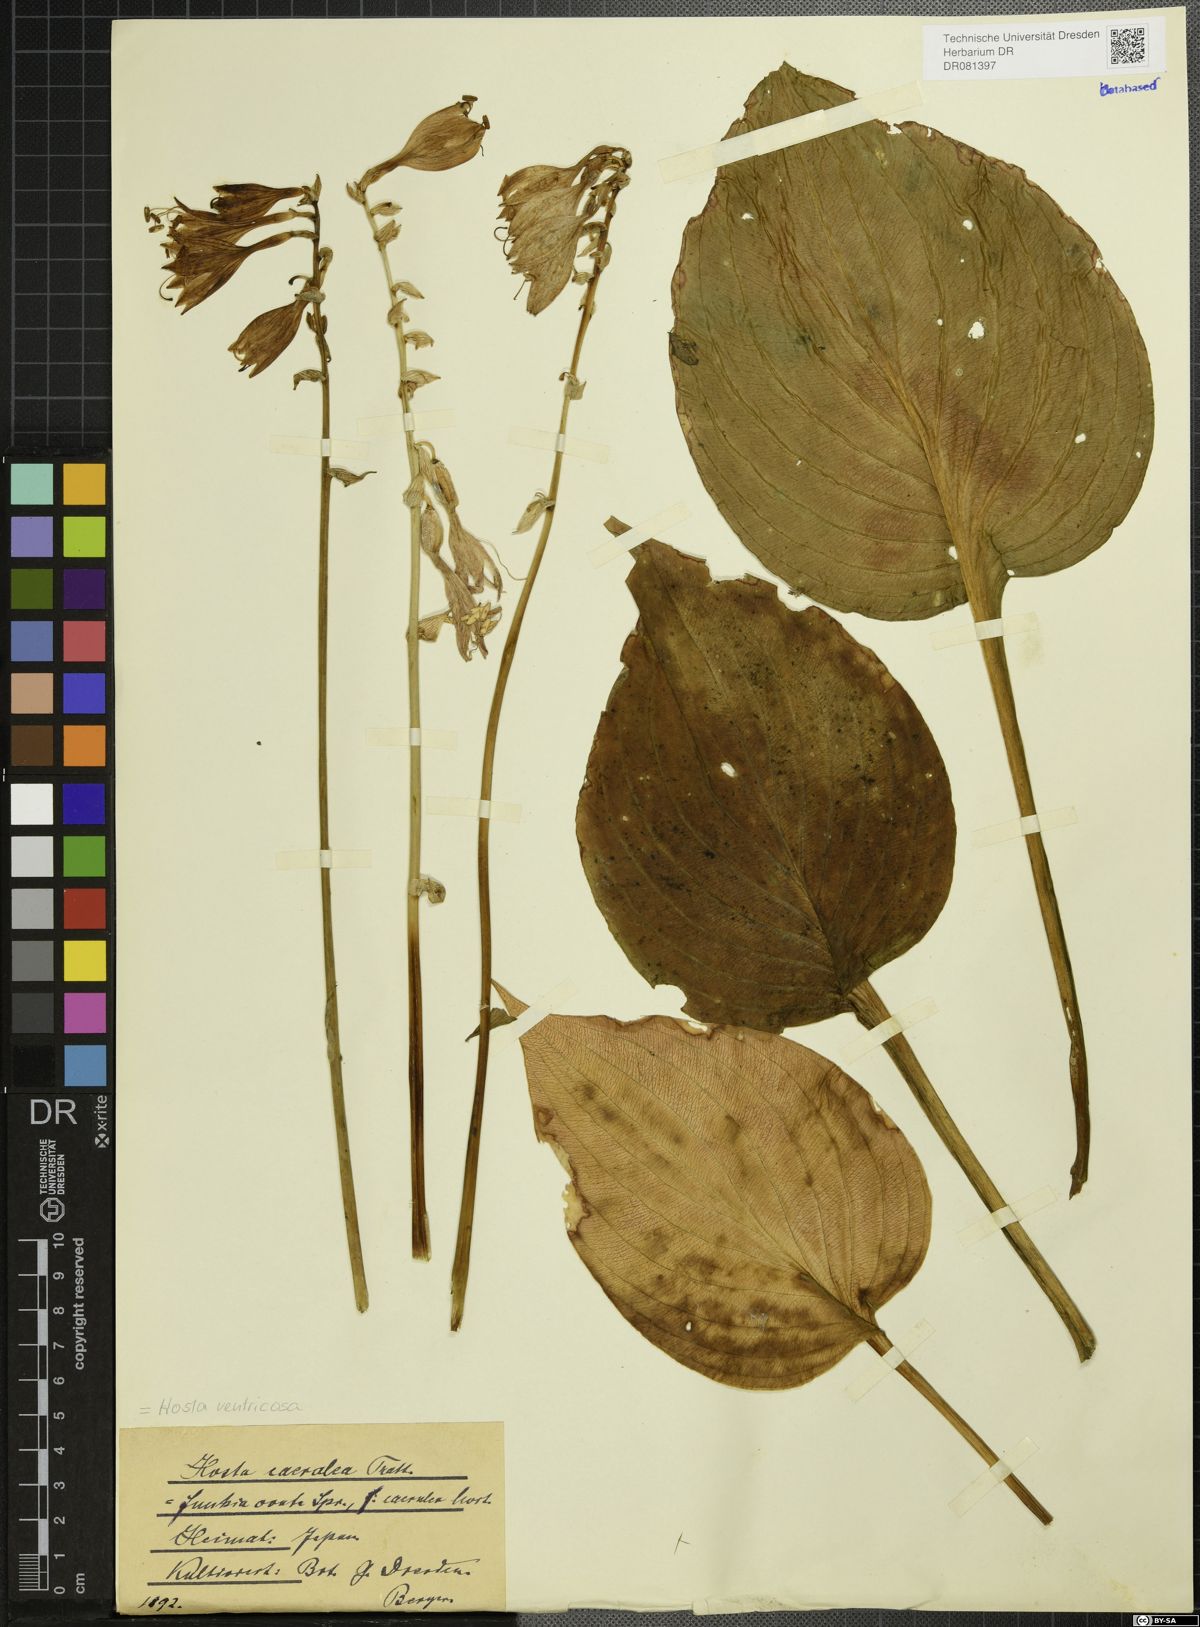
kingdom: Plantae
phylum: Tracheophyta
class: Liliopsida
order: Asparagales
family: Asparagaceae
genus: Hosta
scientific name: Hosta ventricosa
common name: Blue plantain-lily
